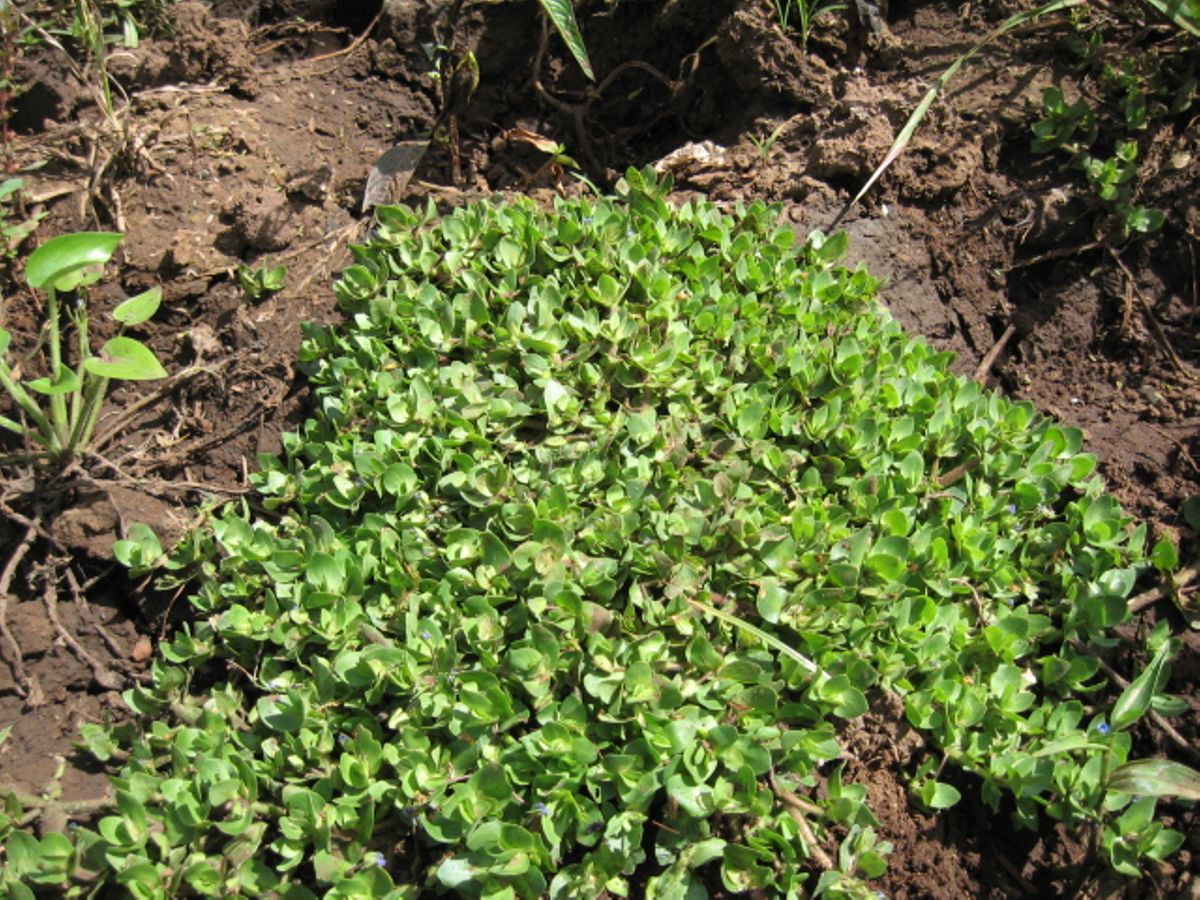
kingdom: Plantae
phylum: Tracheophyta
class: Magnoliopsida
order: Lamiales
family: Scrophulariaceae
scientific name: Scrophulariaceae
